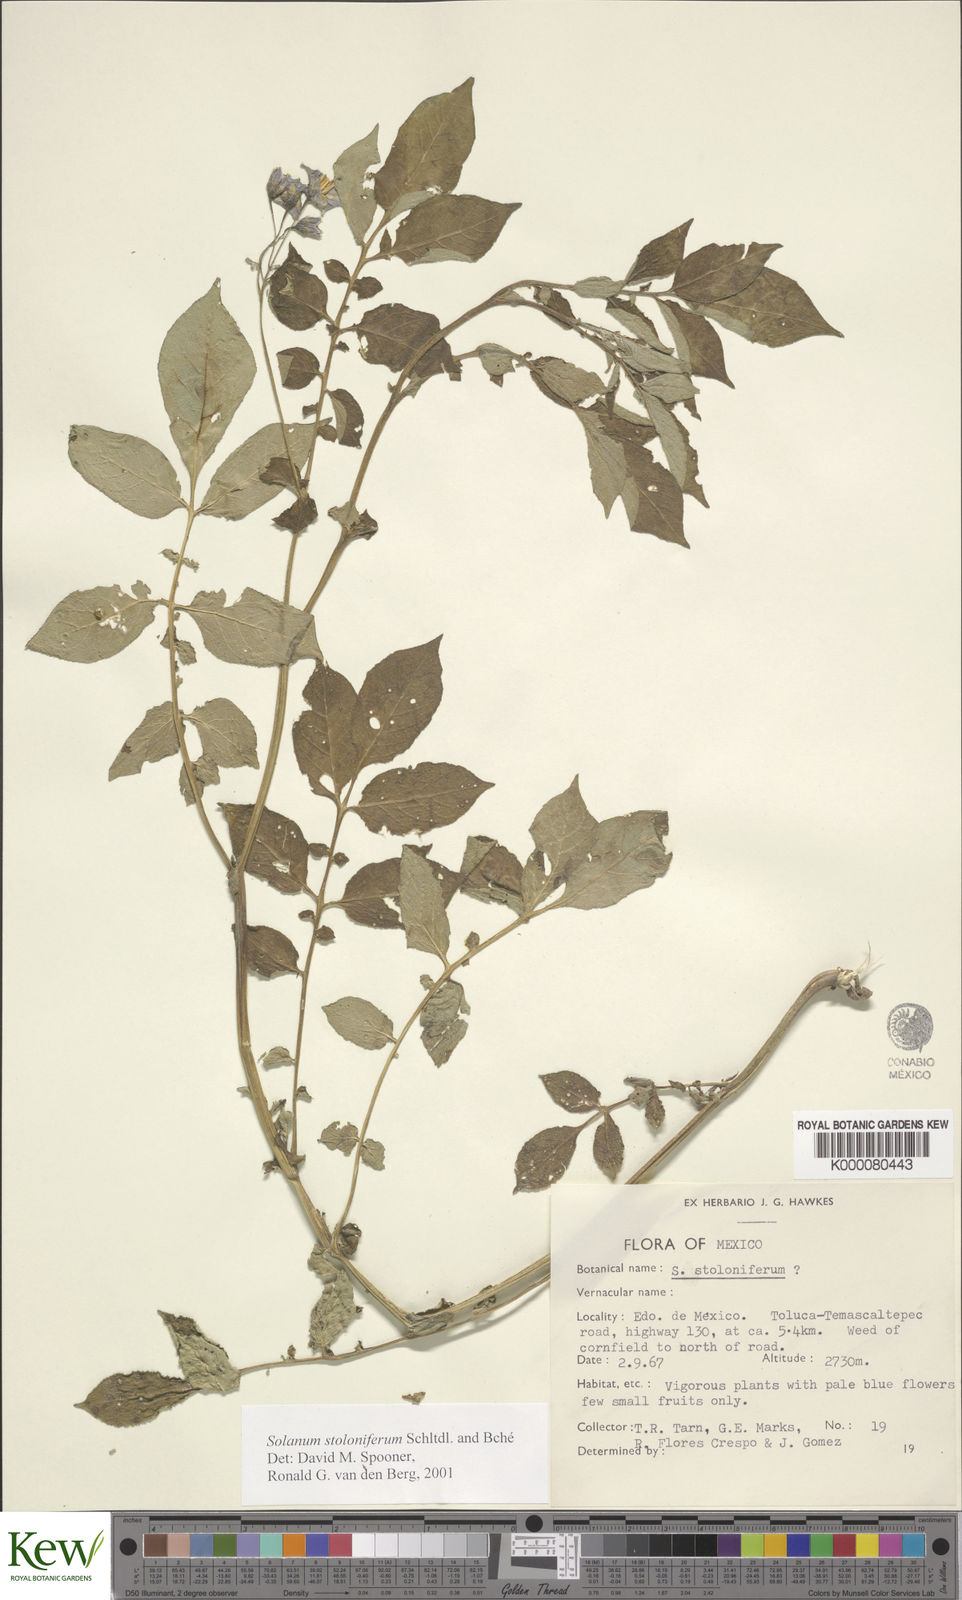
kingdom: Plantae
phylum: Tracheophyta
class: Magnoliopsida
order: Solanales
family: Solanaceae
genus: Solanum
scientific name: Solanum stoloniferum
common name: Fendler's nighshade
